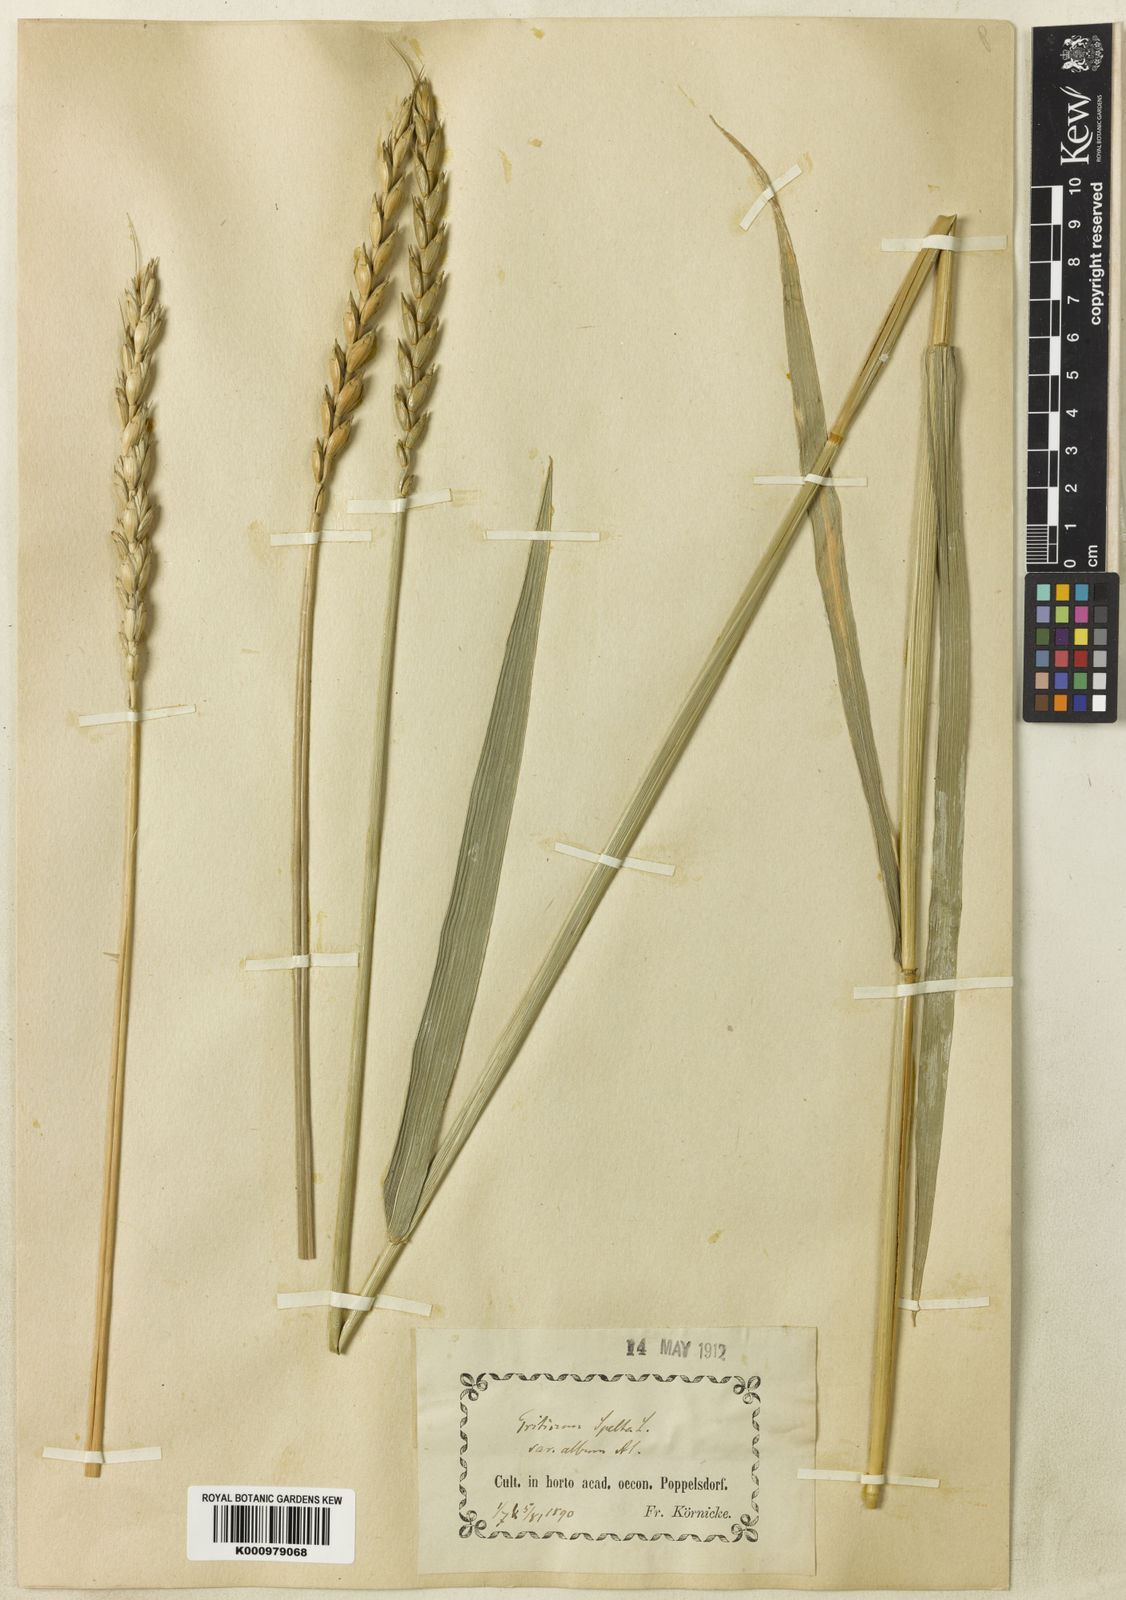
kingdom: Plantae
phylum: Tracheophyta
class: Liliopsida
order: Poales
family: Poaceae
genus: Triticum
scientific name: Triticum aestivum
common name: Common wheat
